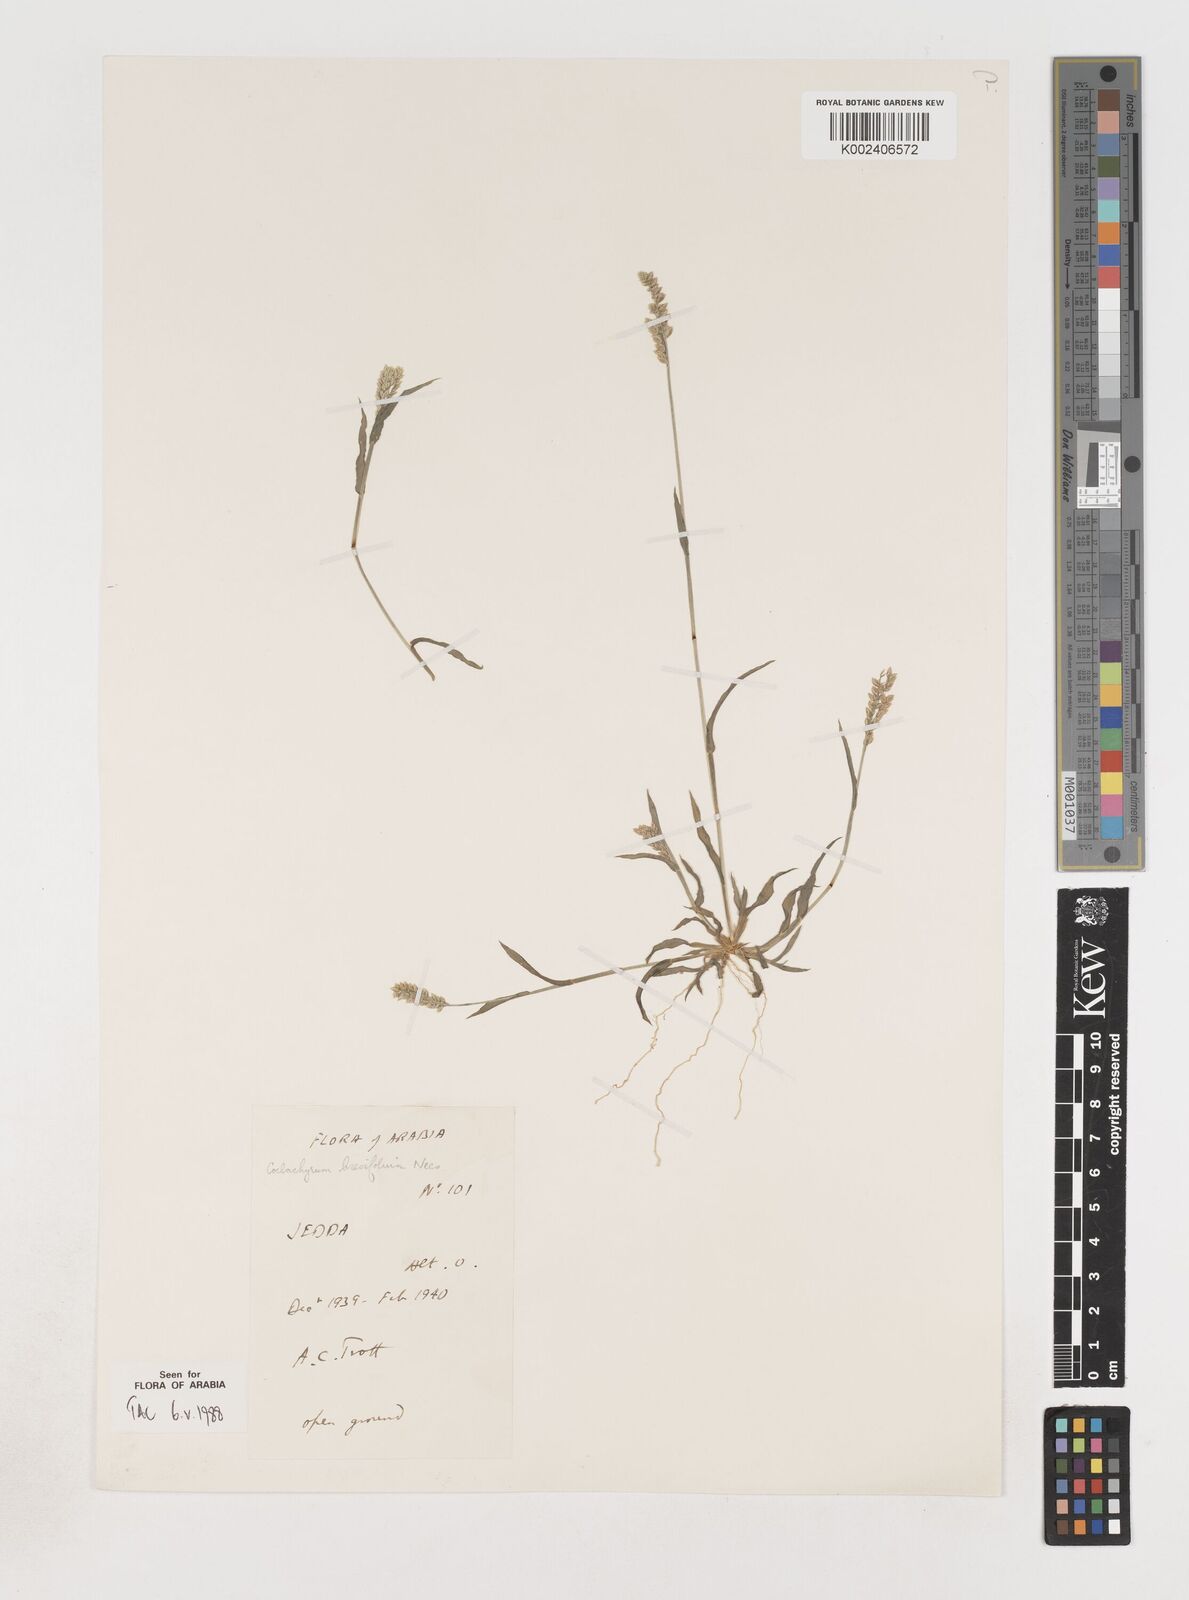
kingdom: Plantae
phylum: Tracheophyta
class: Liliopsida
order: Poales
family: Poaceae
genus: Coelachyrum
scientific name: Coelachyrum brevifolium
